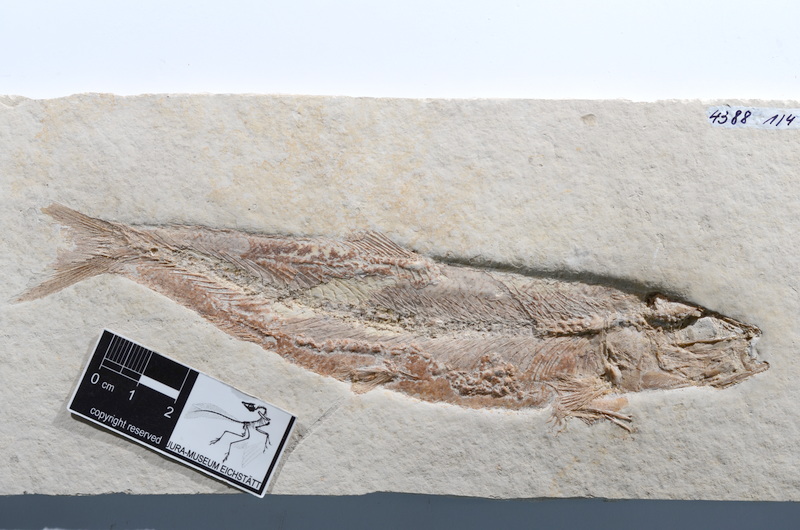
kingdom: Animalia
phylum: Chordata
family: Ascalaboidae
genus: Tharsis
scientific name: Tharsis dubius
